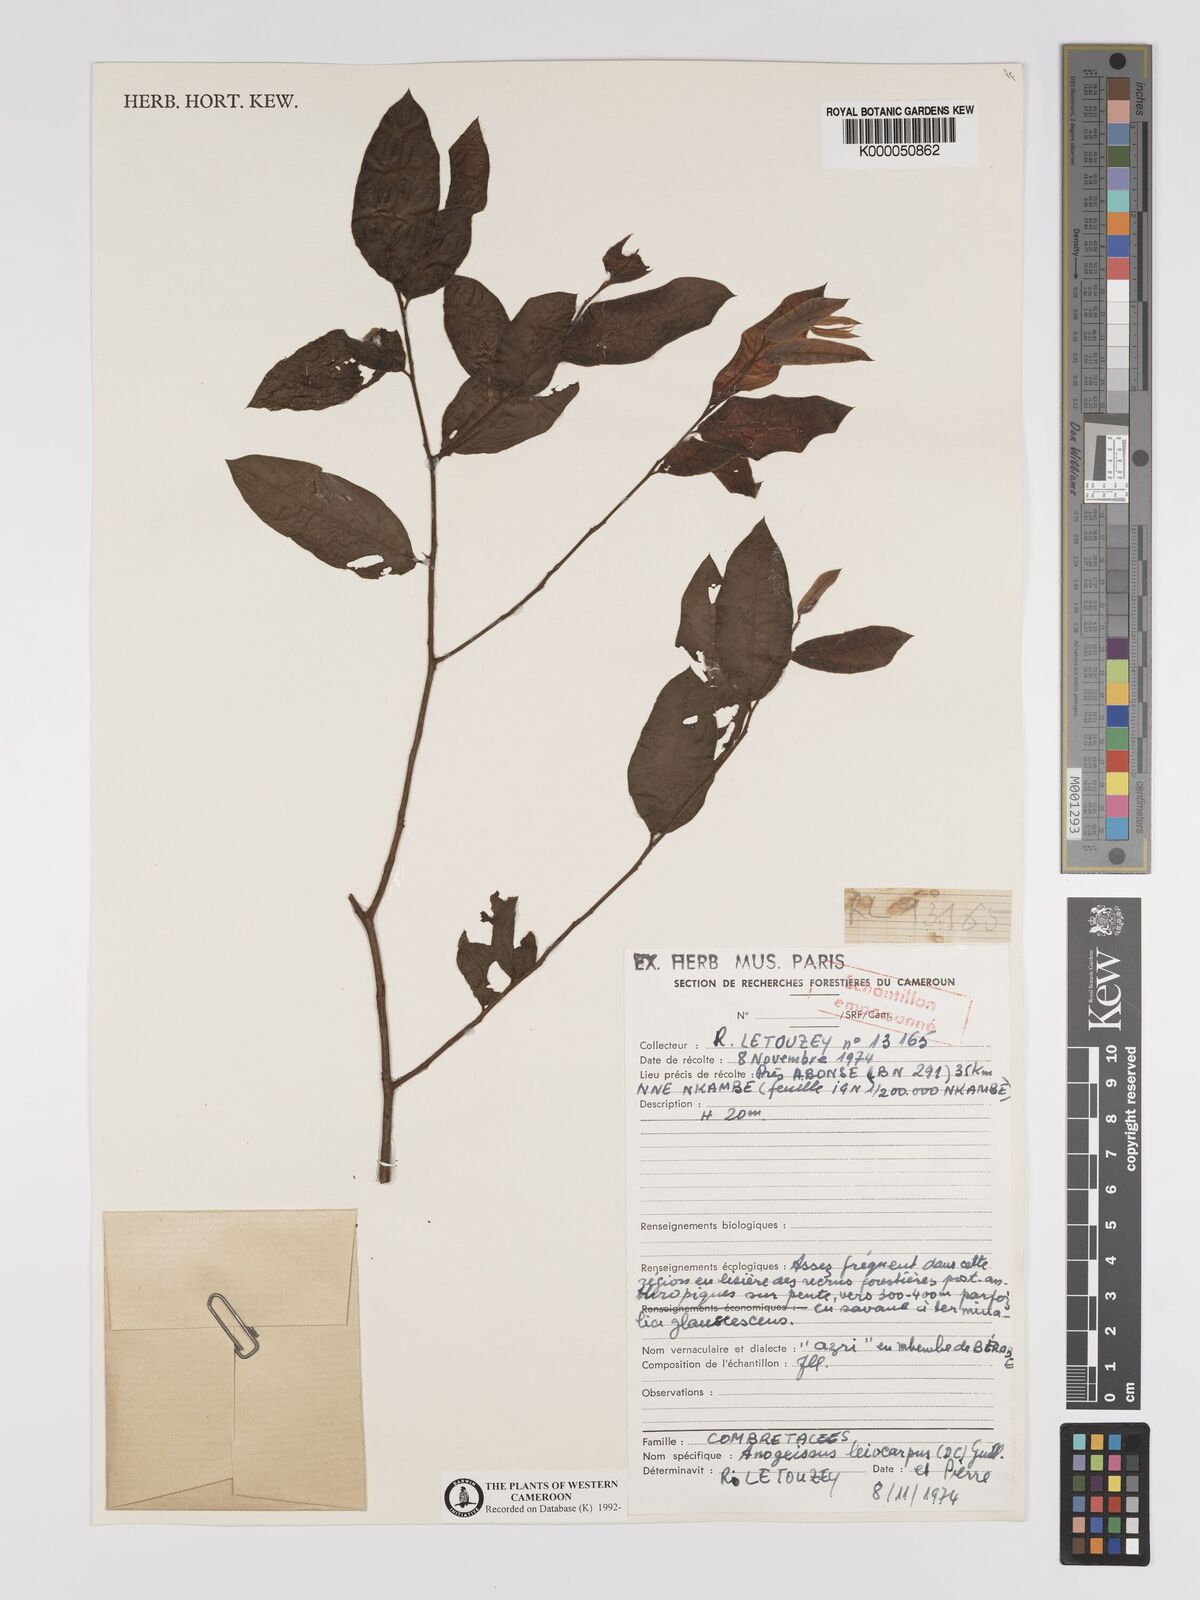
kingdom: Plantae
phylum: Tracheophyta
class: Magnoliopsida
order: Myrtales
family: Combretaceae
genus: Terminalia
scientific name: Terminalia leiocarpa
